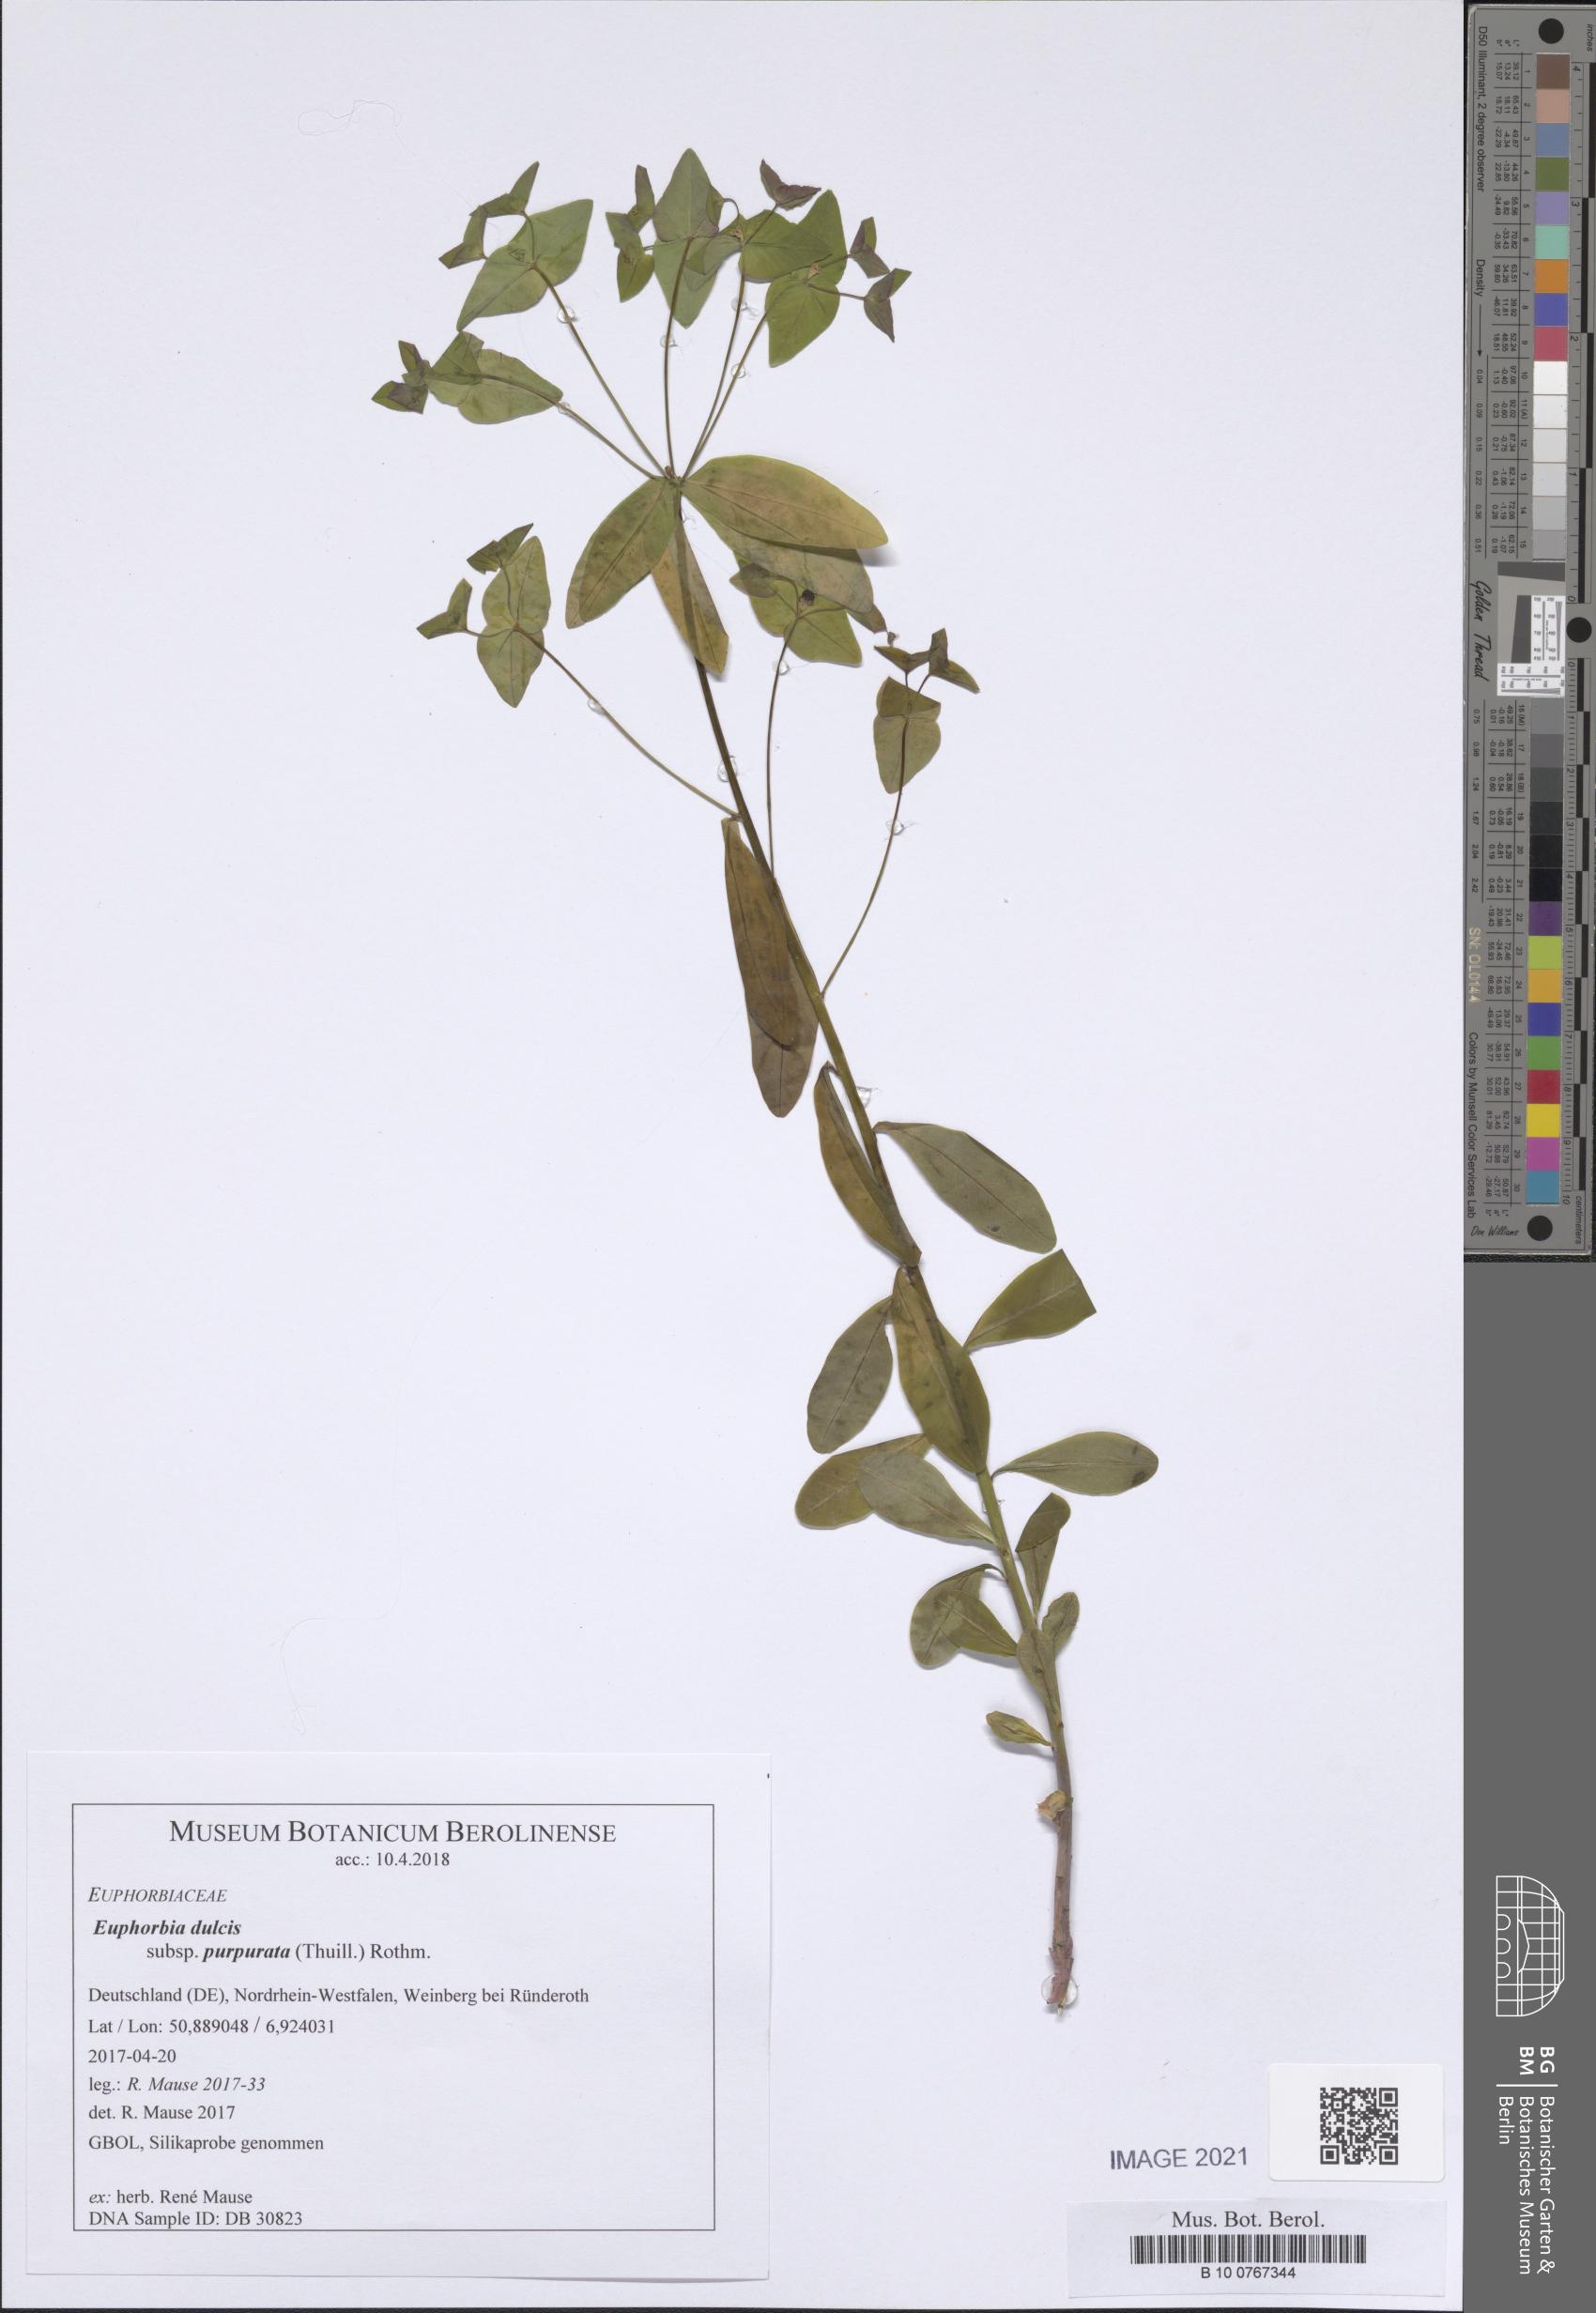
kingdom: Plantae
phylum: Tracheophyta
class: Magnoliopsida
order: Malpighiales
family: Euphorbiaceae
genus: Euphorbia
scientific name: Euphorbia dulcis
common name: Sweet spurge
